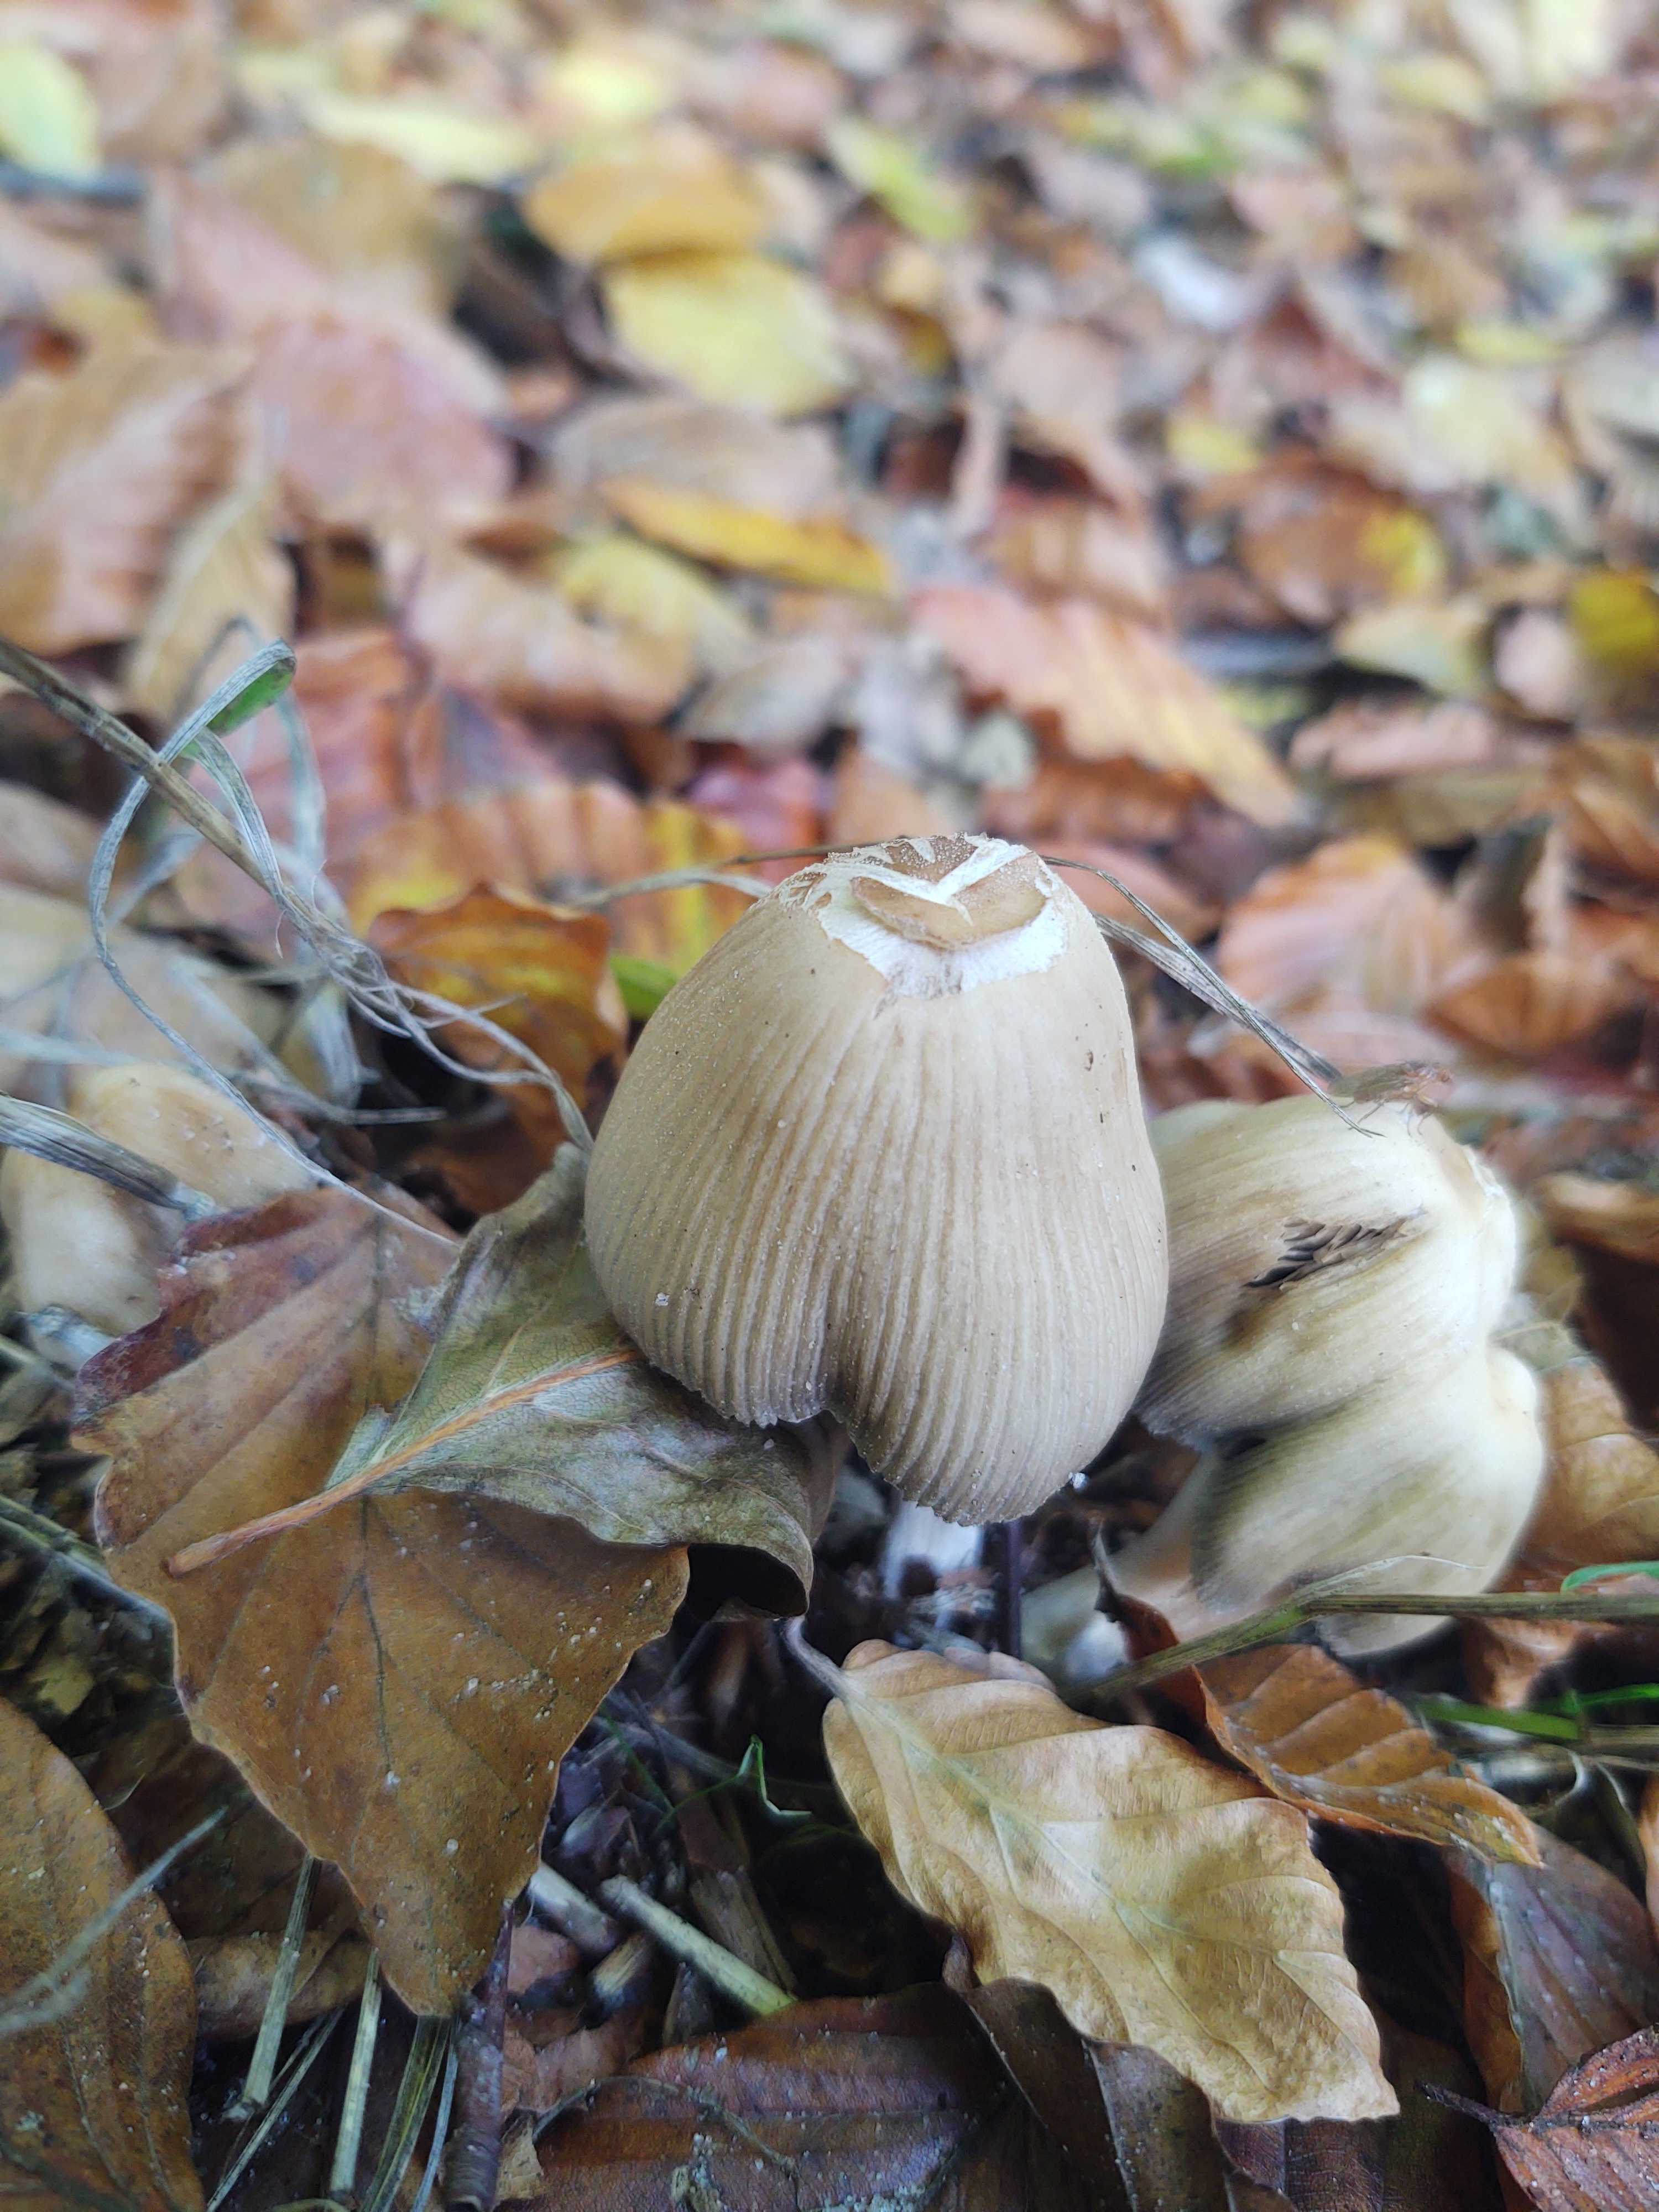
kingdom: Fungi
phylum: Basidiomycota
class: Agaricomycetes
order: Agaricales
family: Psathyrellaceae
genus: Coprinellus
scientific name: Coprinellus
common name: blækhat
